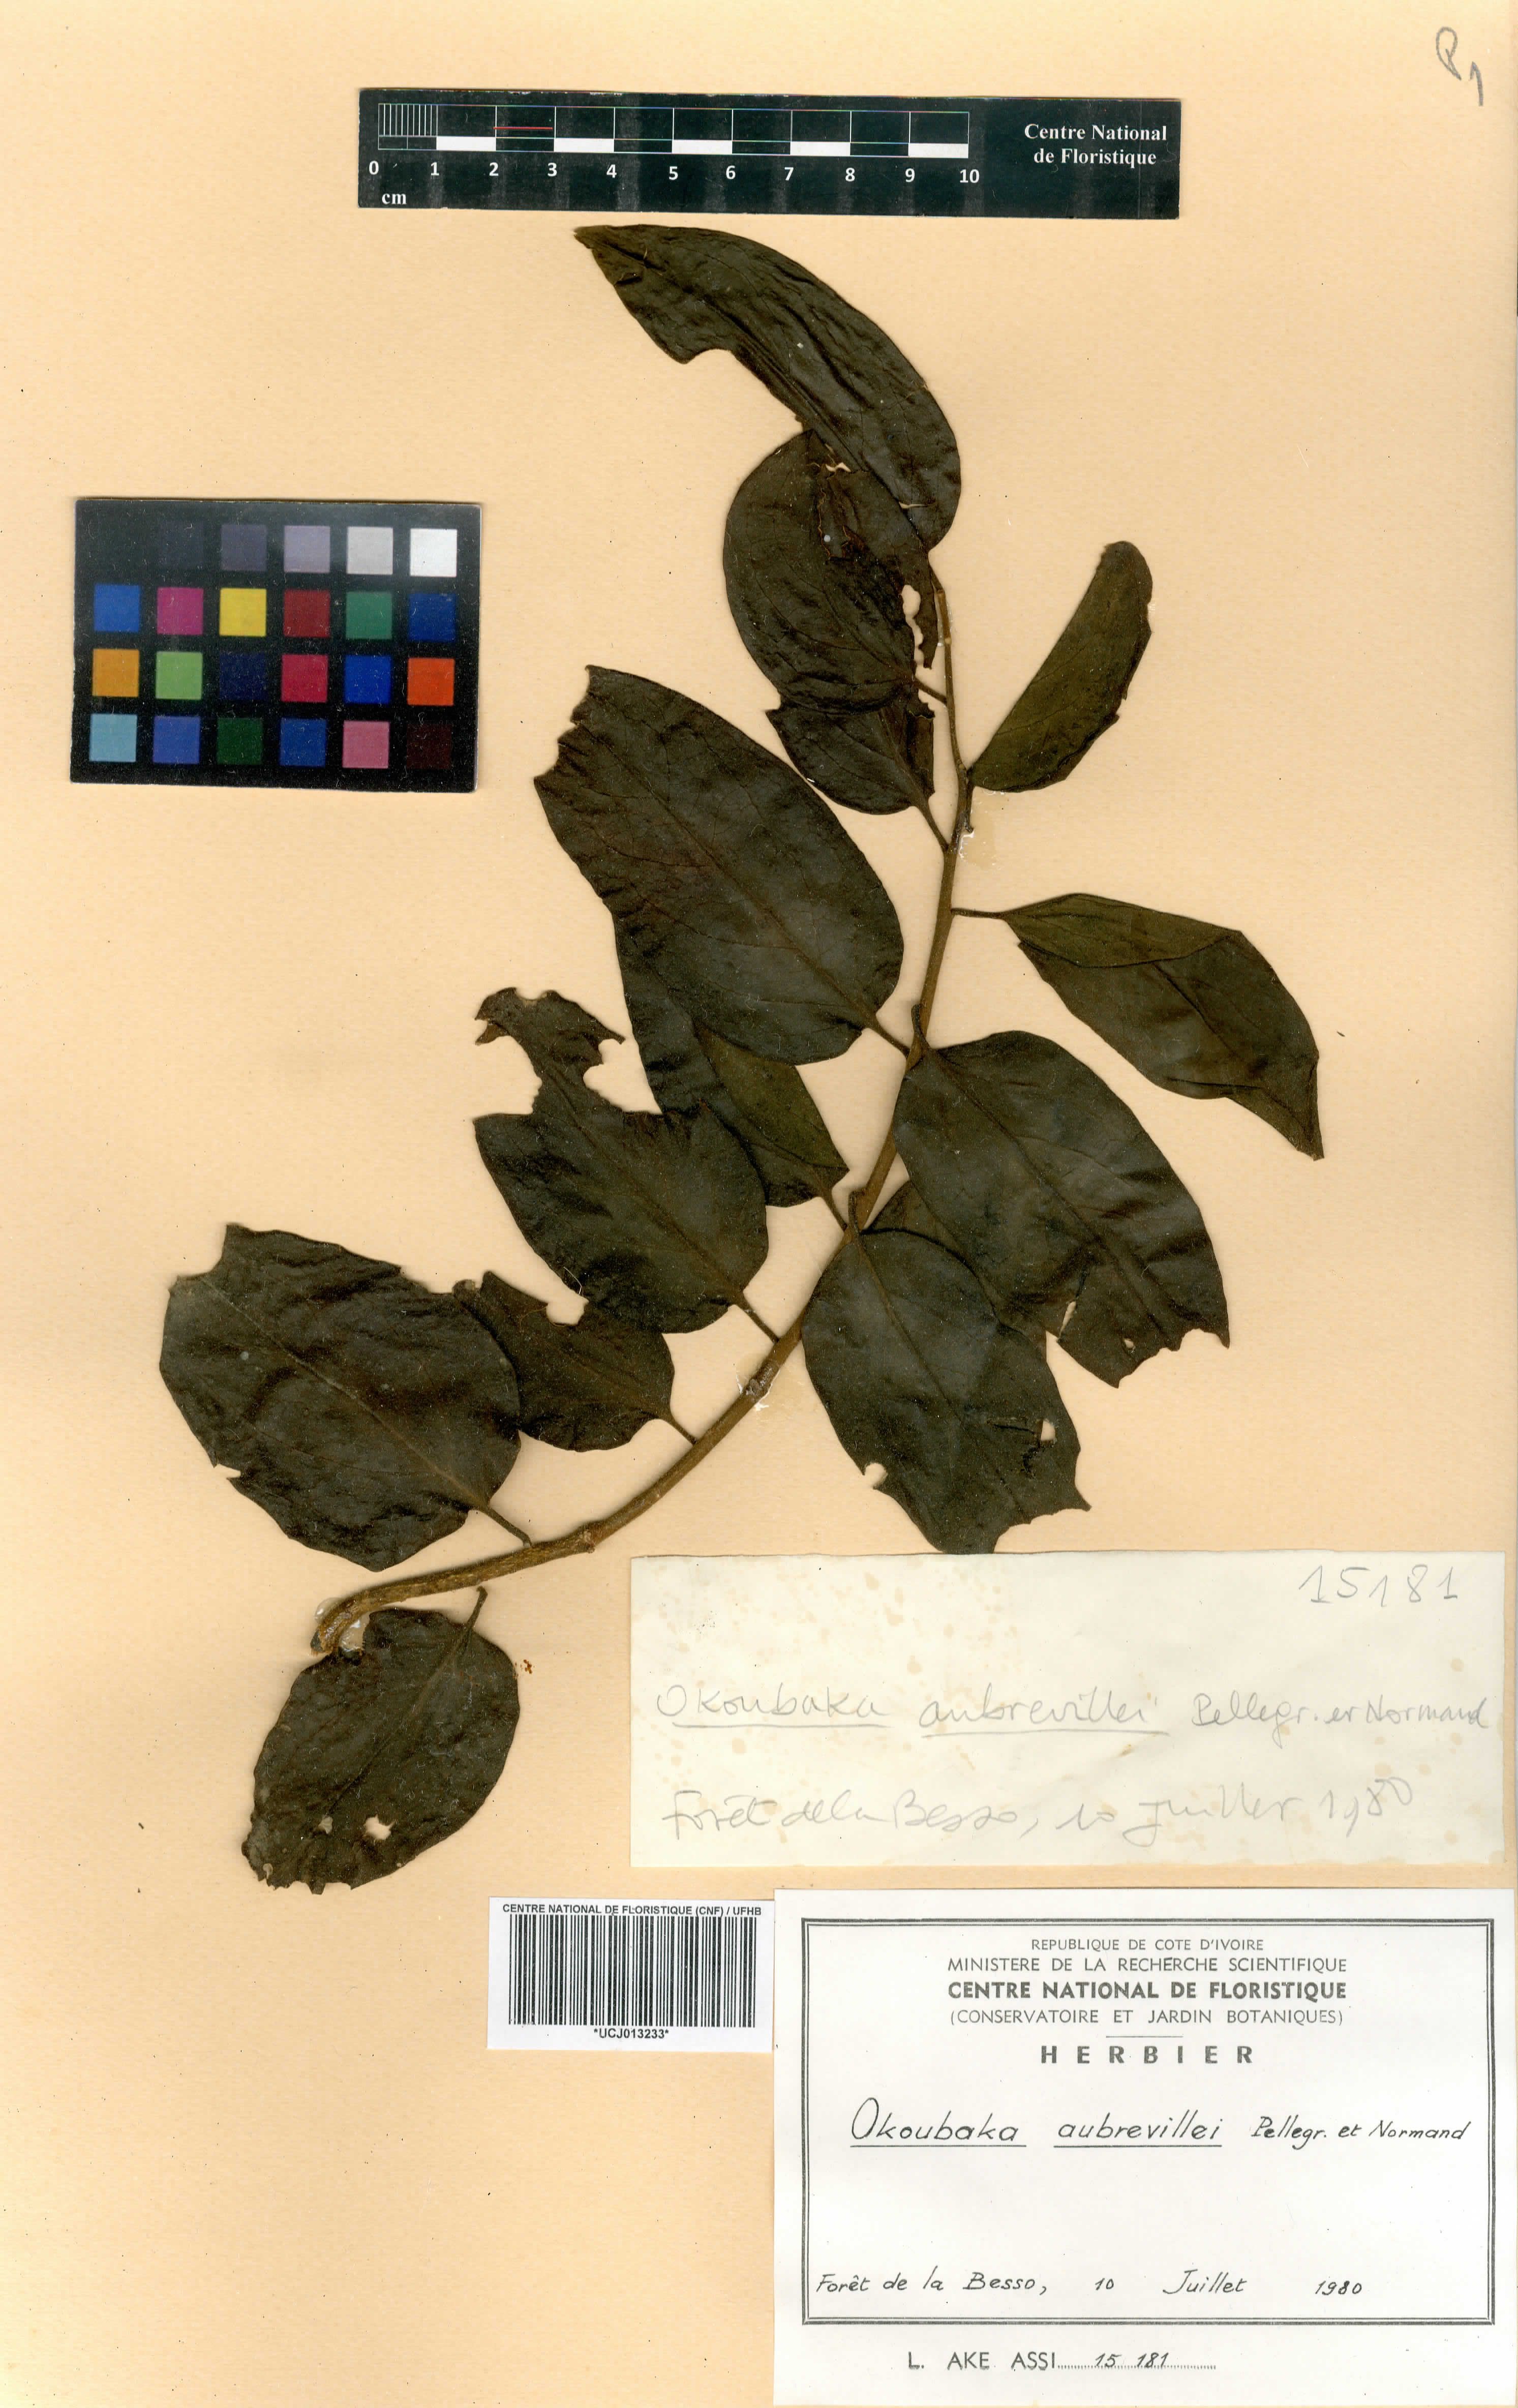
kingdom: Plantae
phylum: Tracheophyta
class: Magnoliopsida
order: Santalales
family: Cervantesiaceae
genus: Okoubaka
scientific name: Okoubaka aubrevillei
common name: Death tree
